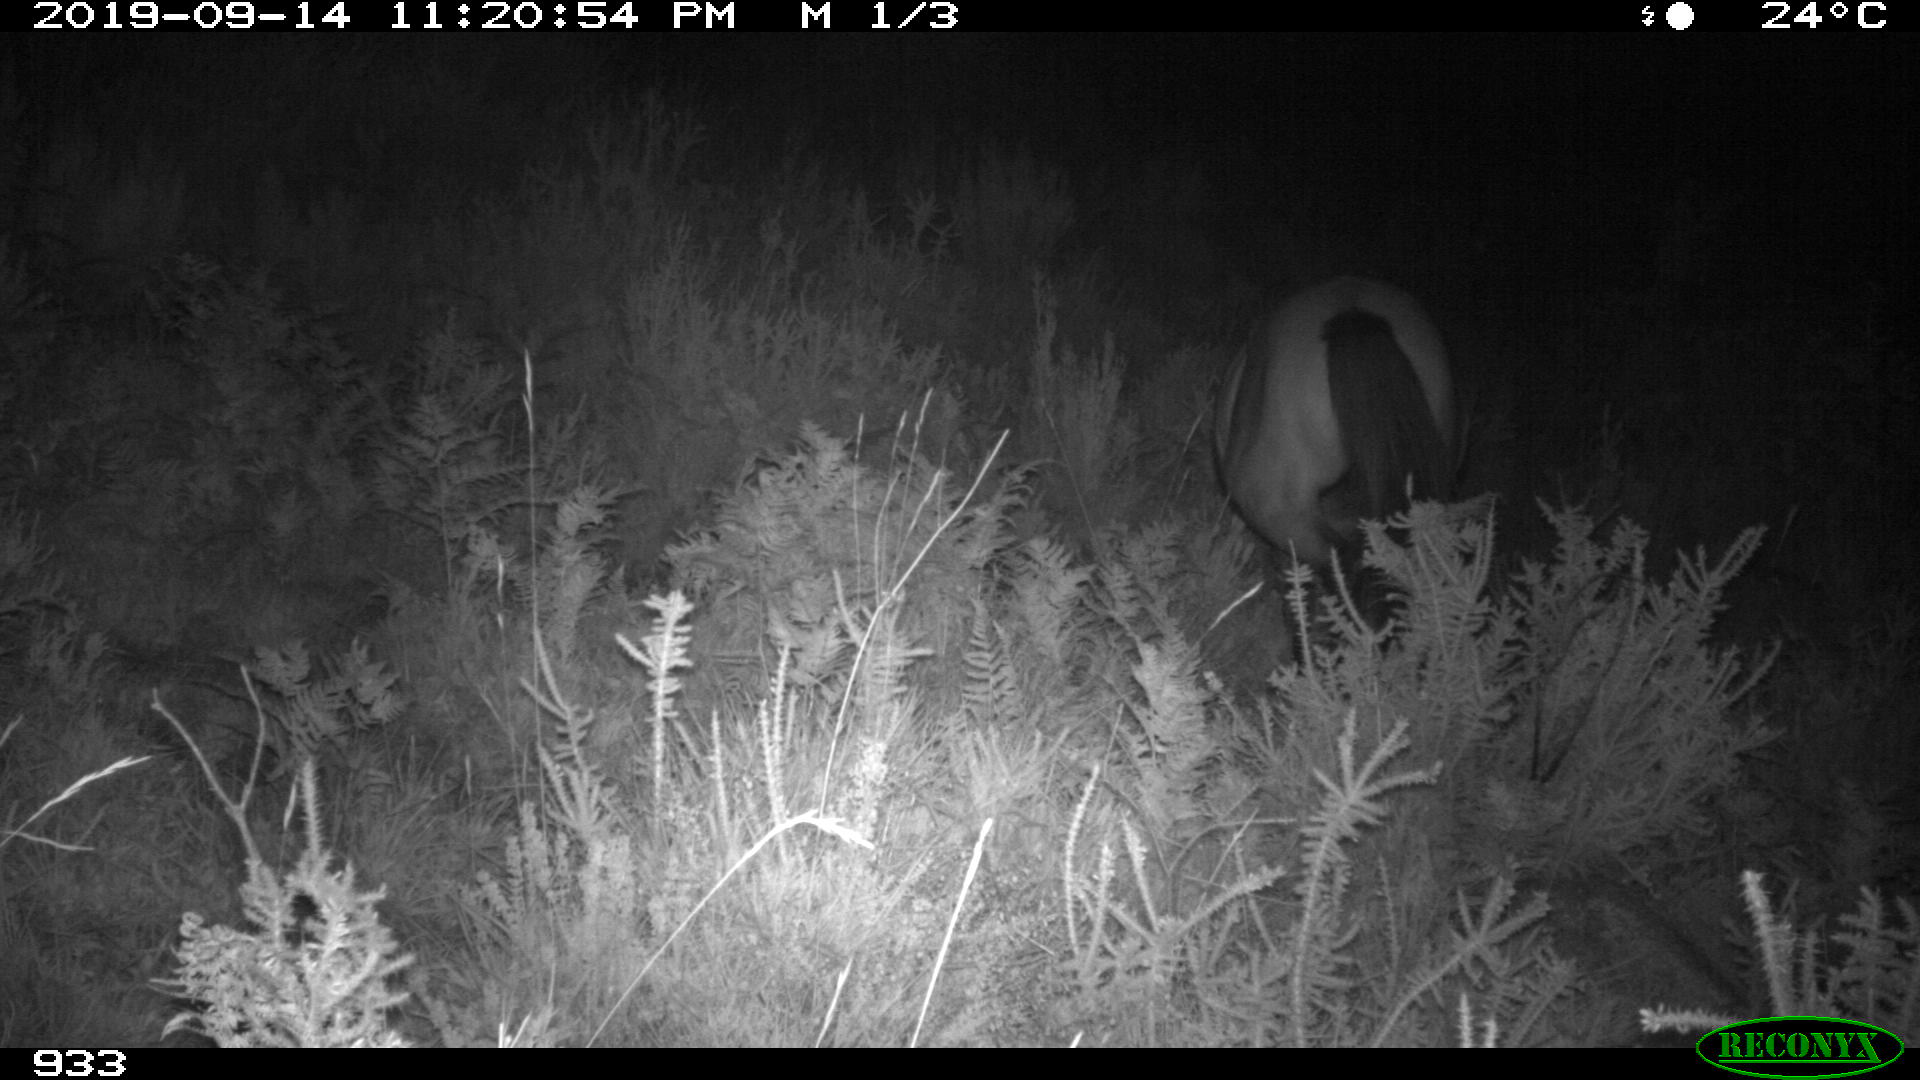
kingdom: Animalia
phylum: Chordata
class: Mammalia
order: Perissodactyla
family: Equidae
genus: Equus
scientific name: Equus caballus
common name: Horse
